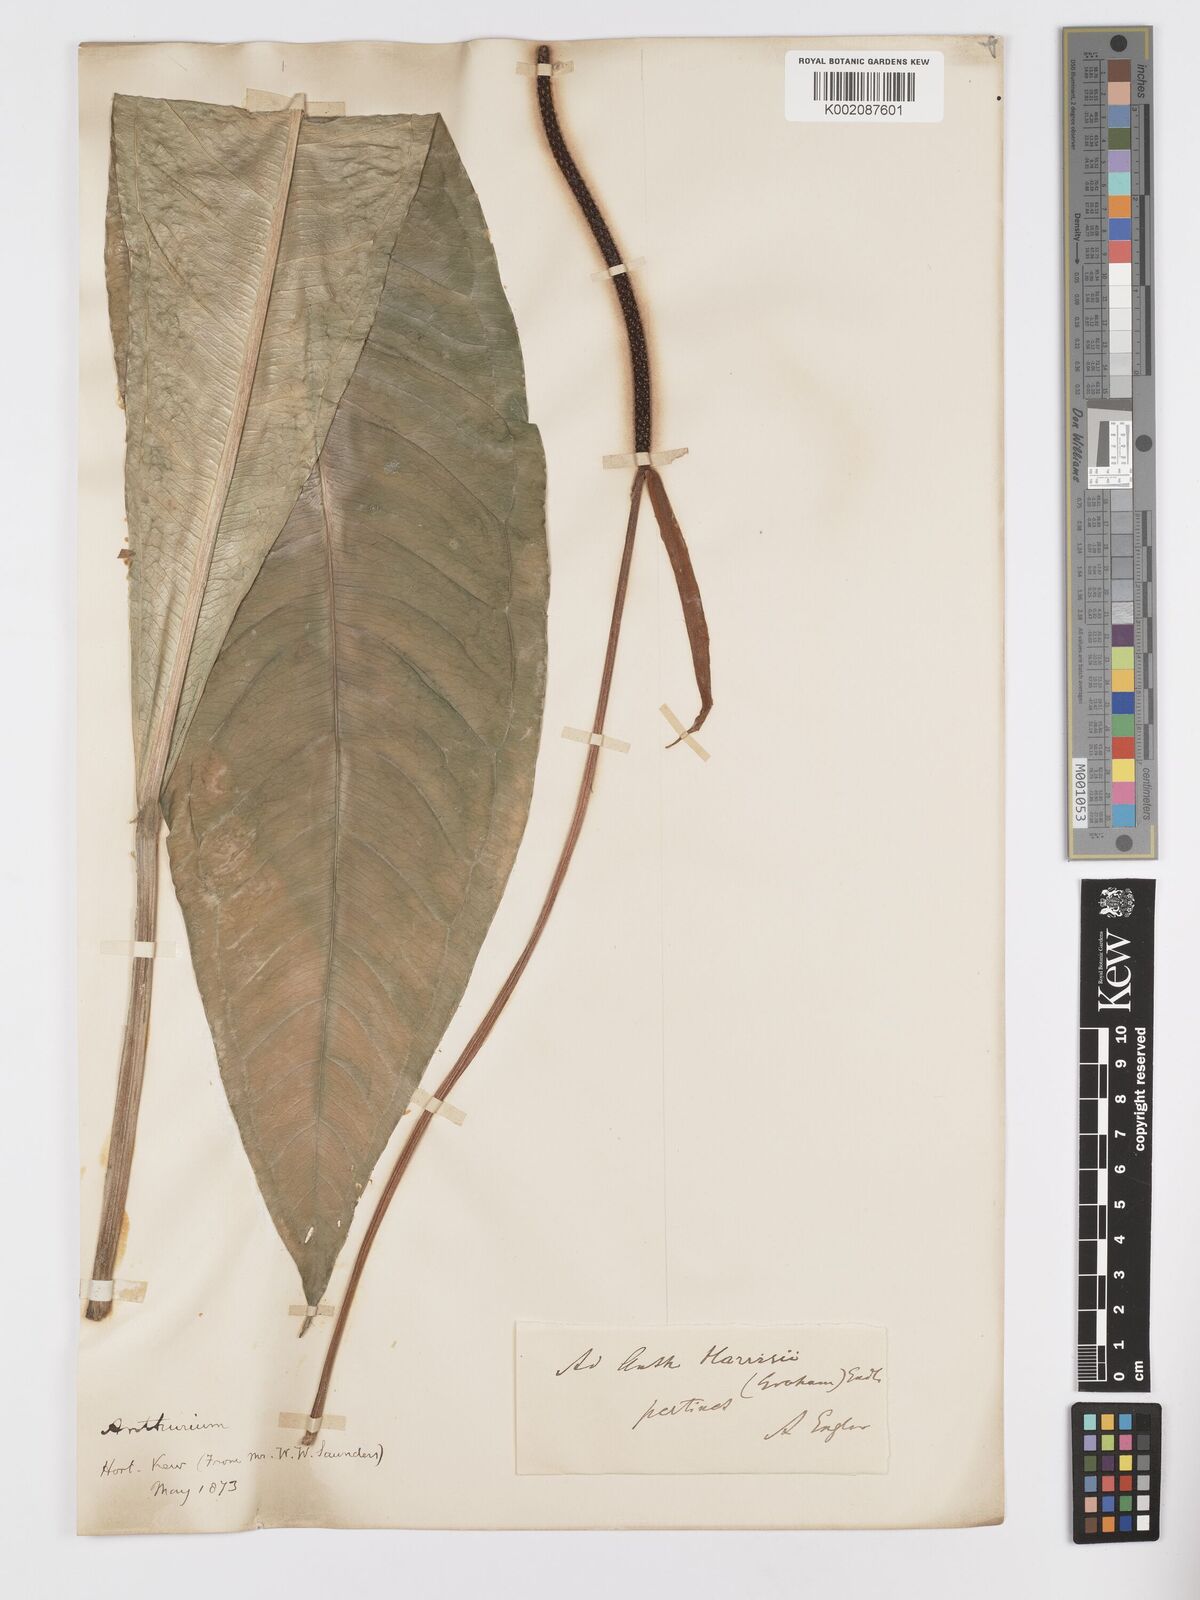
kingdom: Plantae
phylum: Tracheophyta
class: Liliopsida
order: Alismatales
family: Araceae
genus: Anthurium
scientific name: Anthurium harrisii
